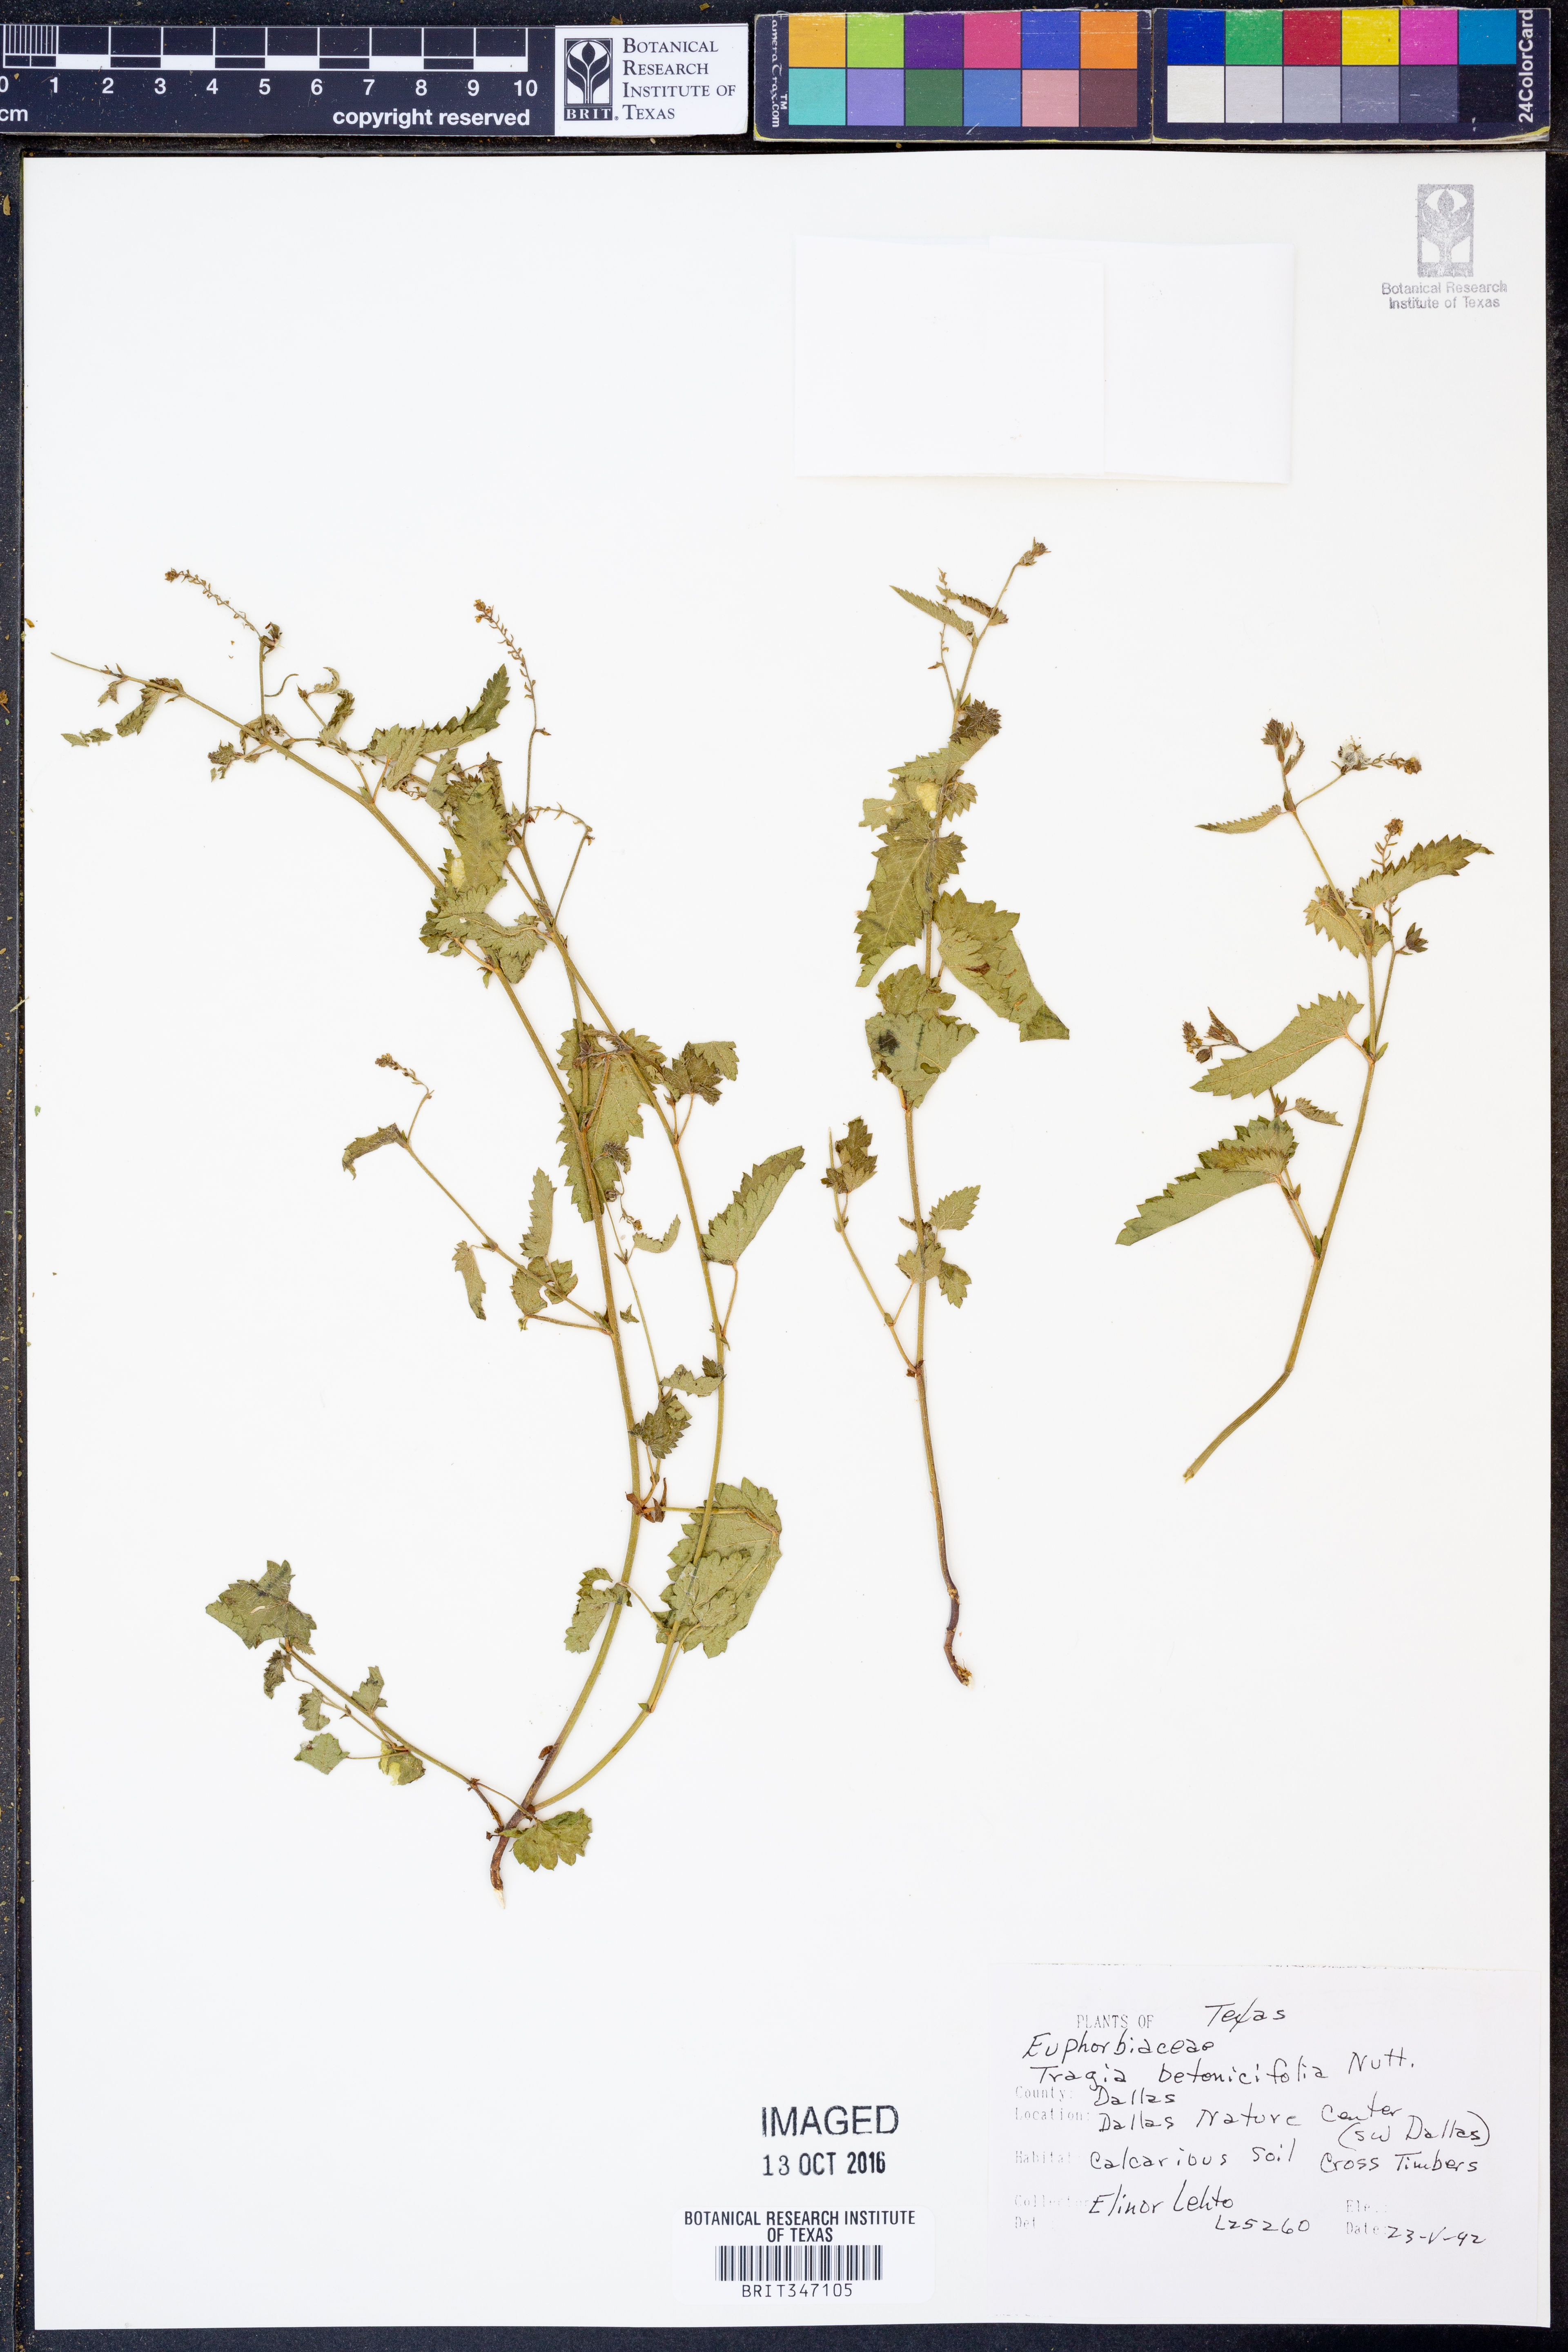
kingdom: Plantae
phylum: Tracheophyta
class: Magnoliopsida
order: Malpighiales
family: Euphorbiaceae
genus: Tragia
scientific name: Tragia betonicifolia
